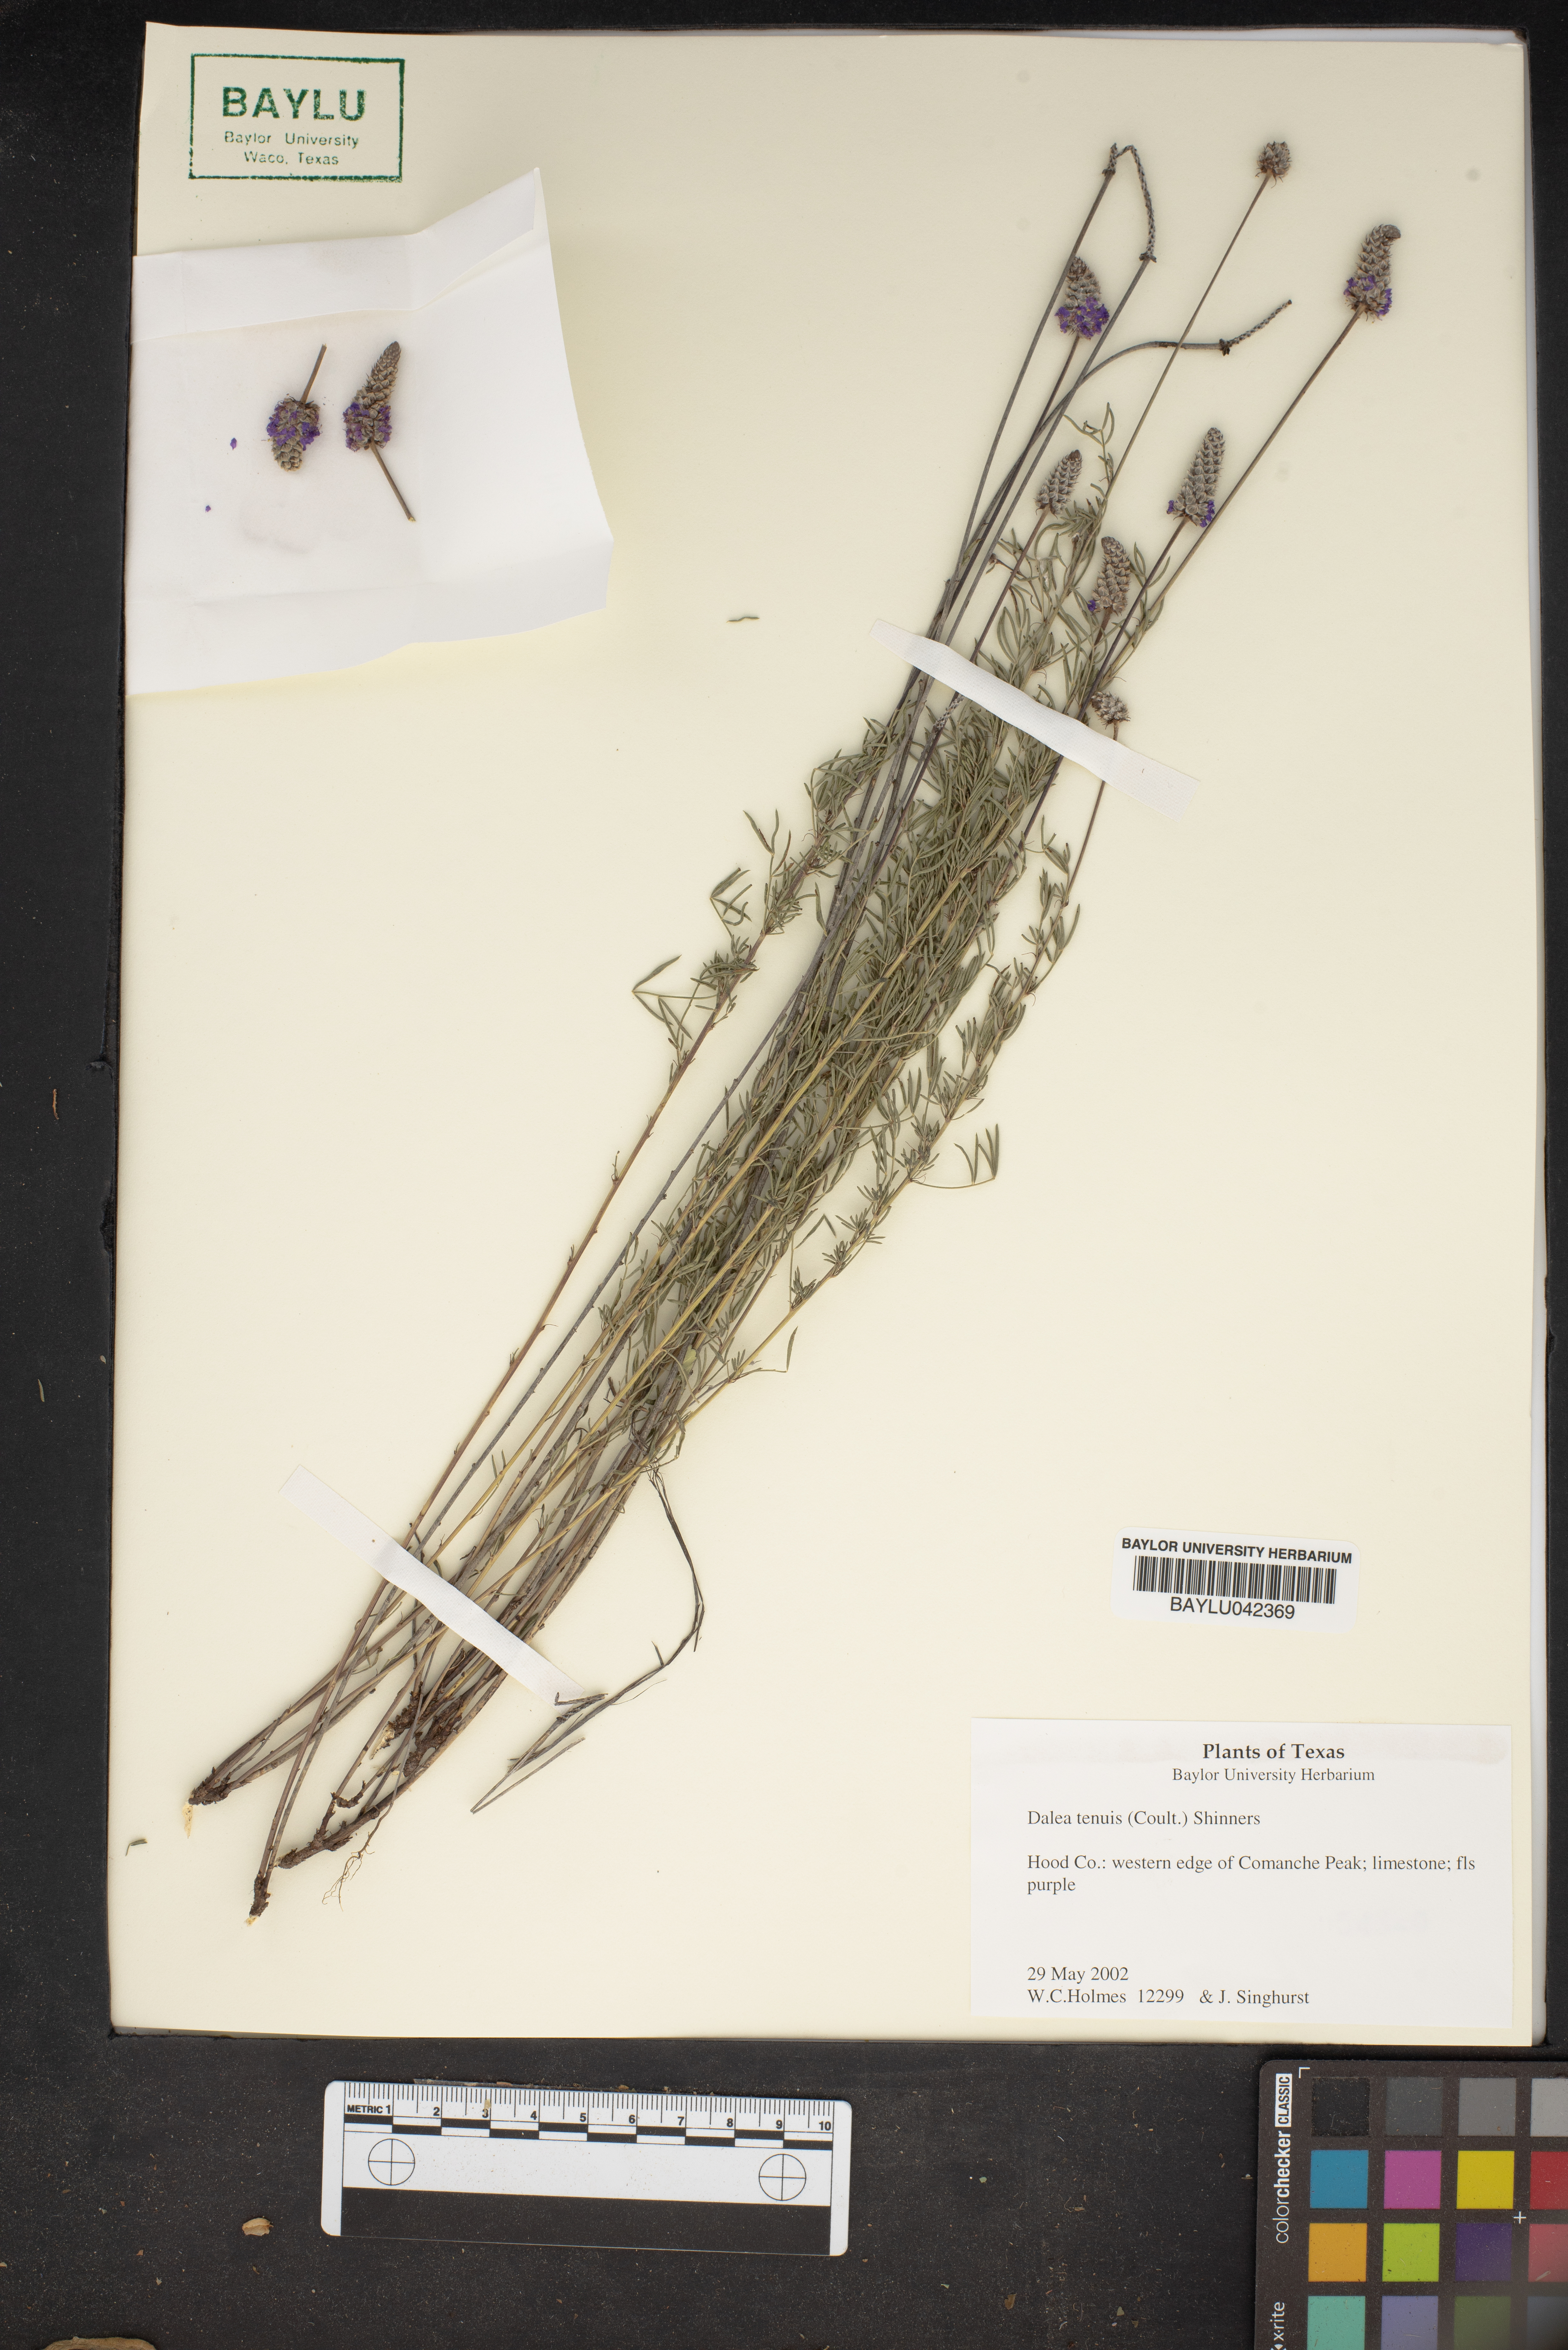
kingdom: Plantae
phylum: Tracheophyta
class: Magnoliopsida
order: Fabales
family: Fabaceae
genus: Dalea
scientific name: Dalea tenuis
